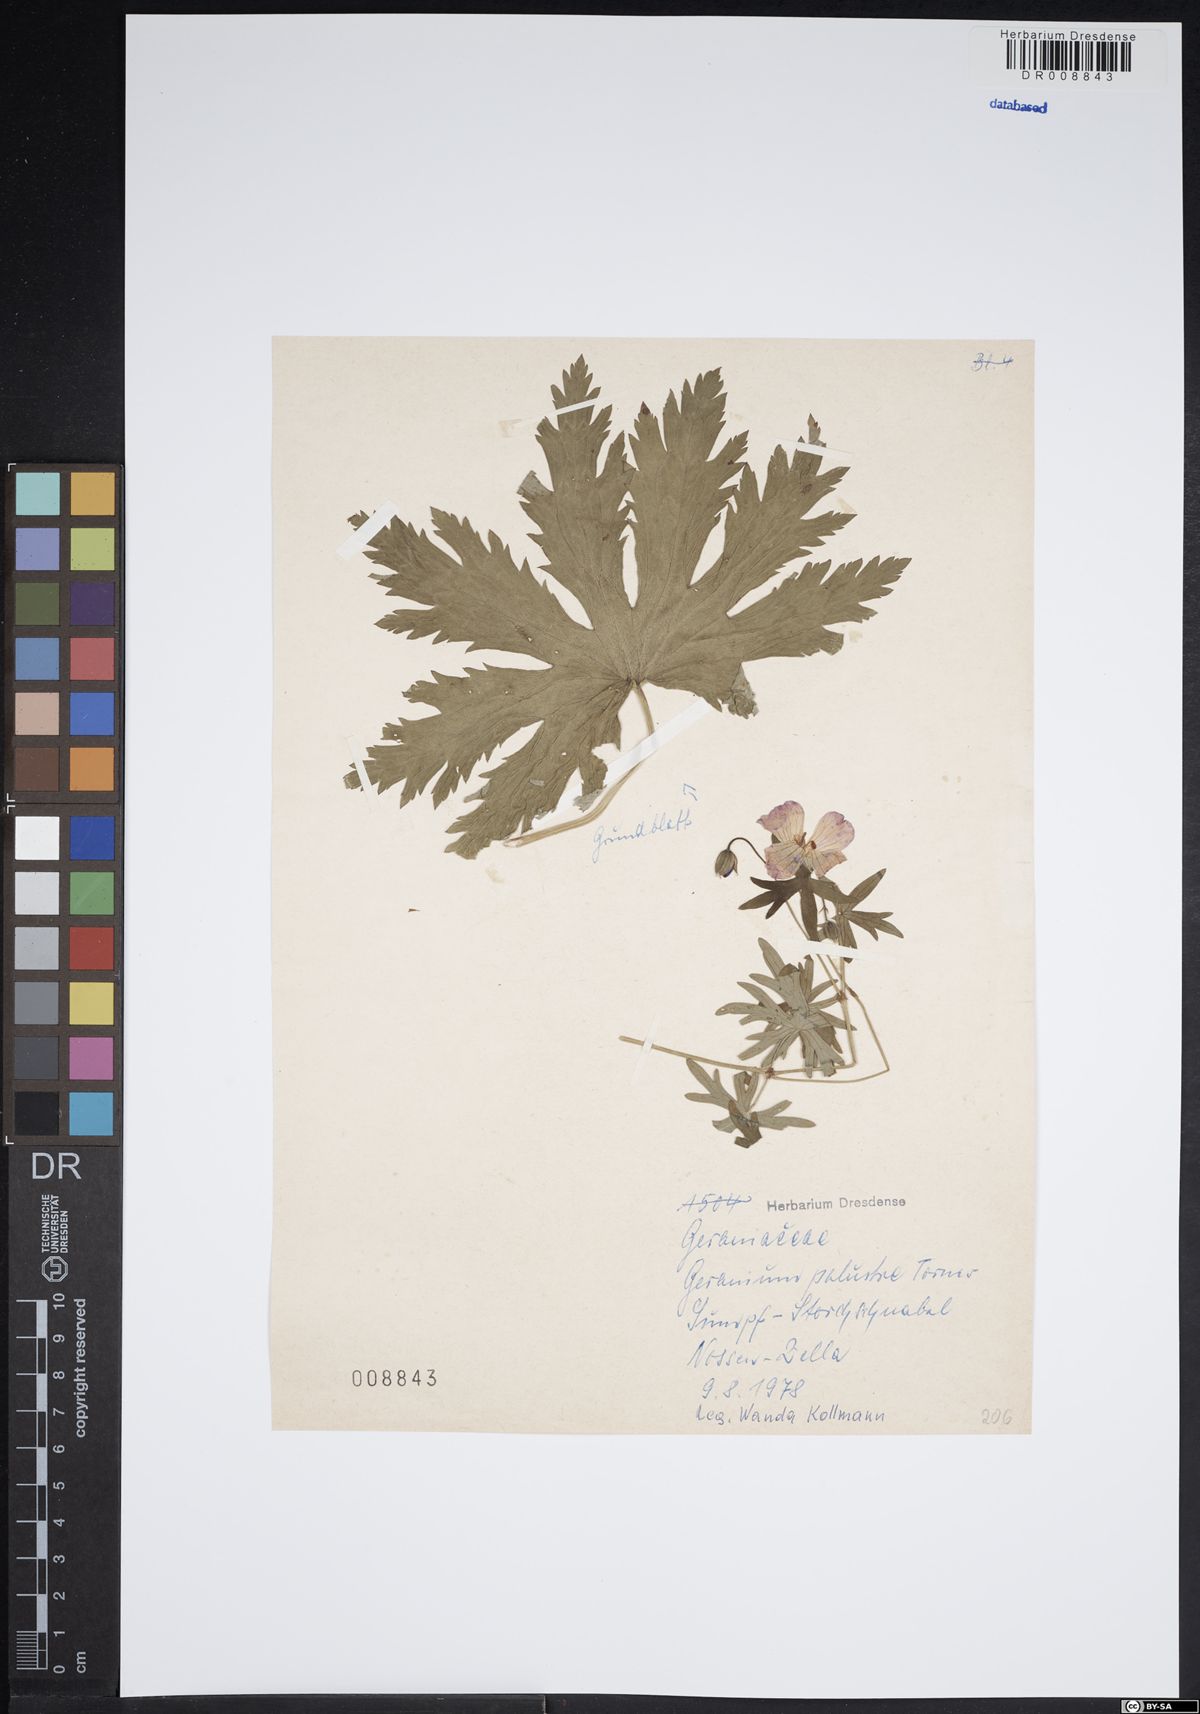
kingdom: Plantae
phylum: Tracheophyta
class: Magnoliopsida
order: Geraniales
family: Geraniaceae
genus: Geranium
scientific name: Geranium palustre
